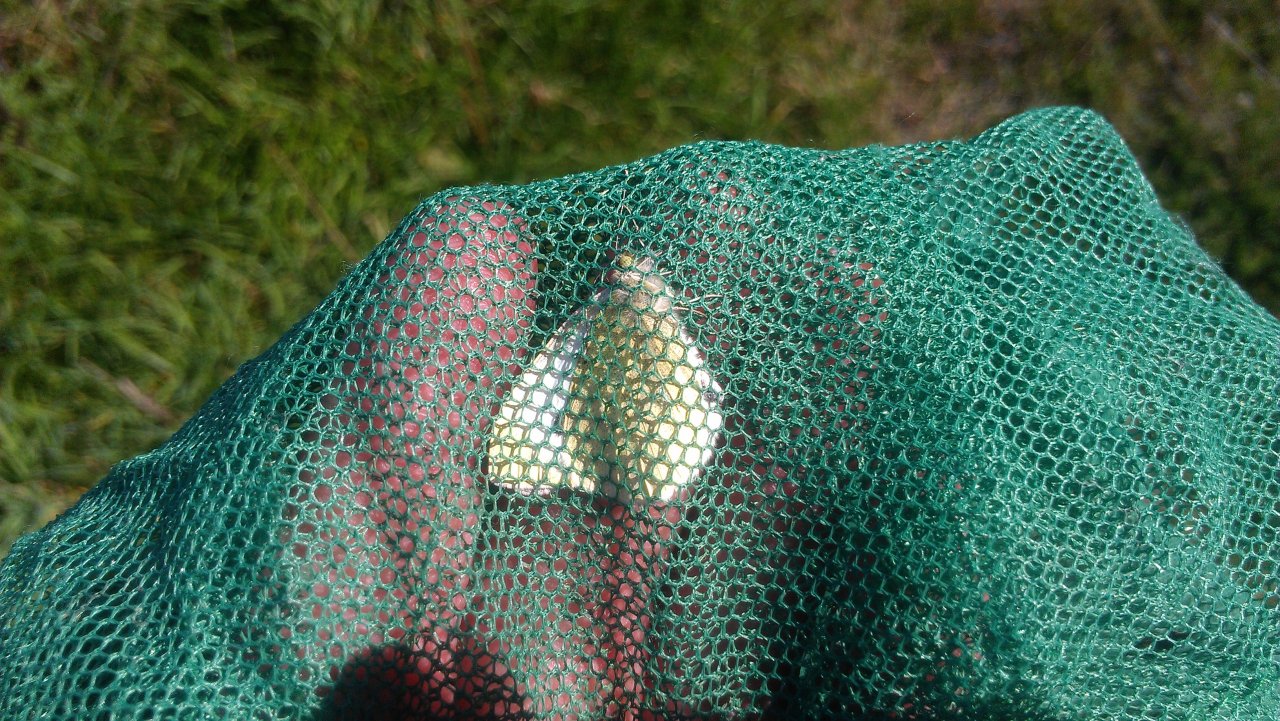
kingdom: Animalia
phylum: Arthropoda
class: Insecta
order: Lepidoptera
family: Pieridae
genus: Pieris
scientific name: Pieris rapae
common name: Cabbage White
